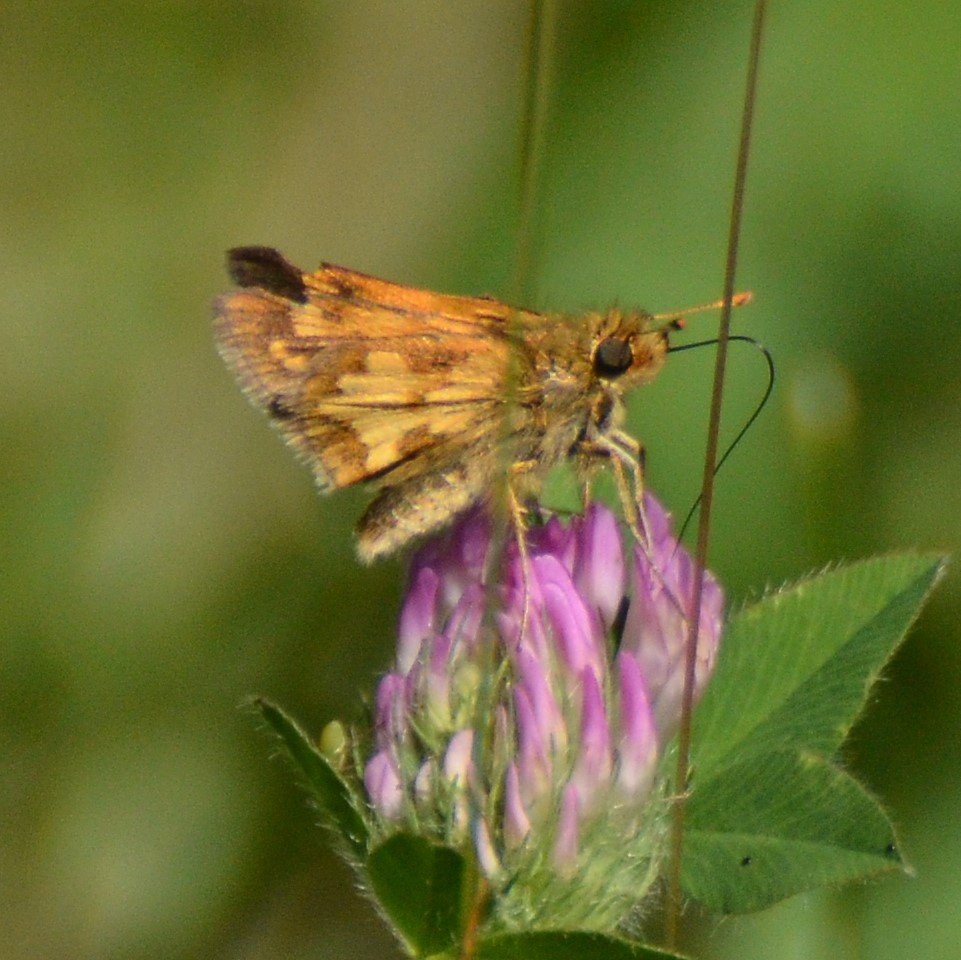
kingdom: Animalia
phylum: Arthropoda
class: Insecta
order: Lepidoptera
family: Hesperiidae
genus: Polites
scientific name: Polites coras
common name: Peck's Skipper
